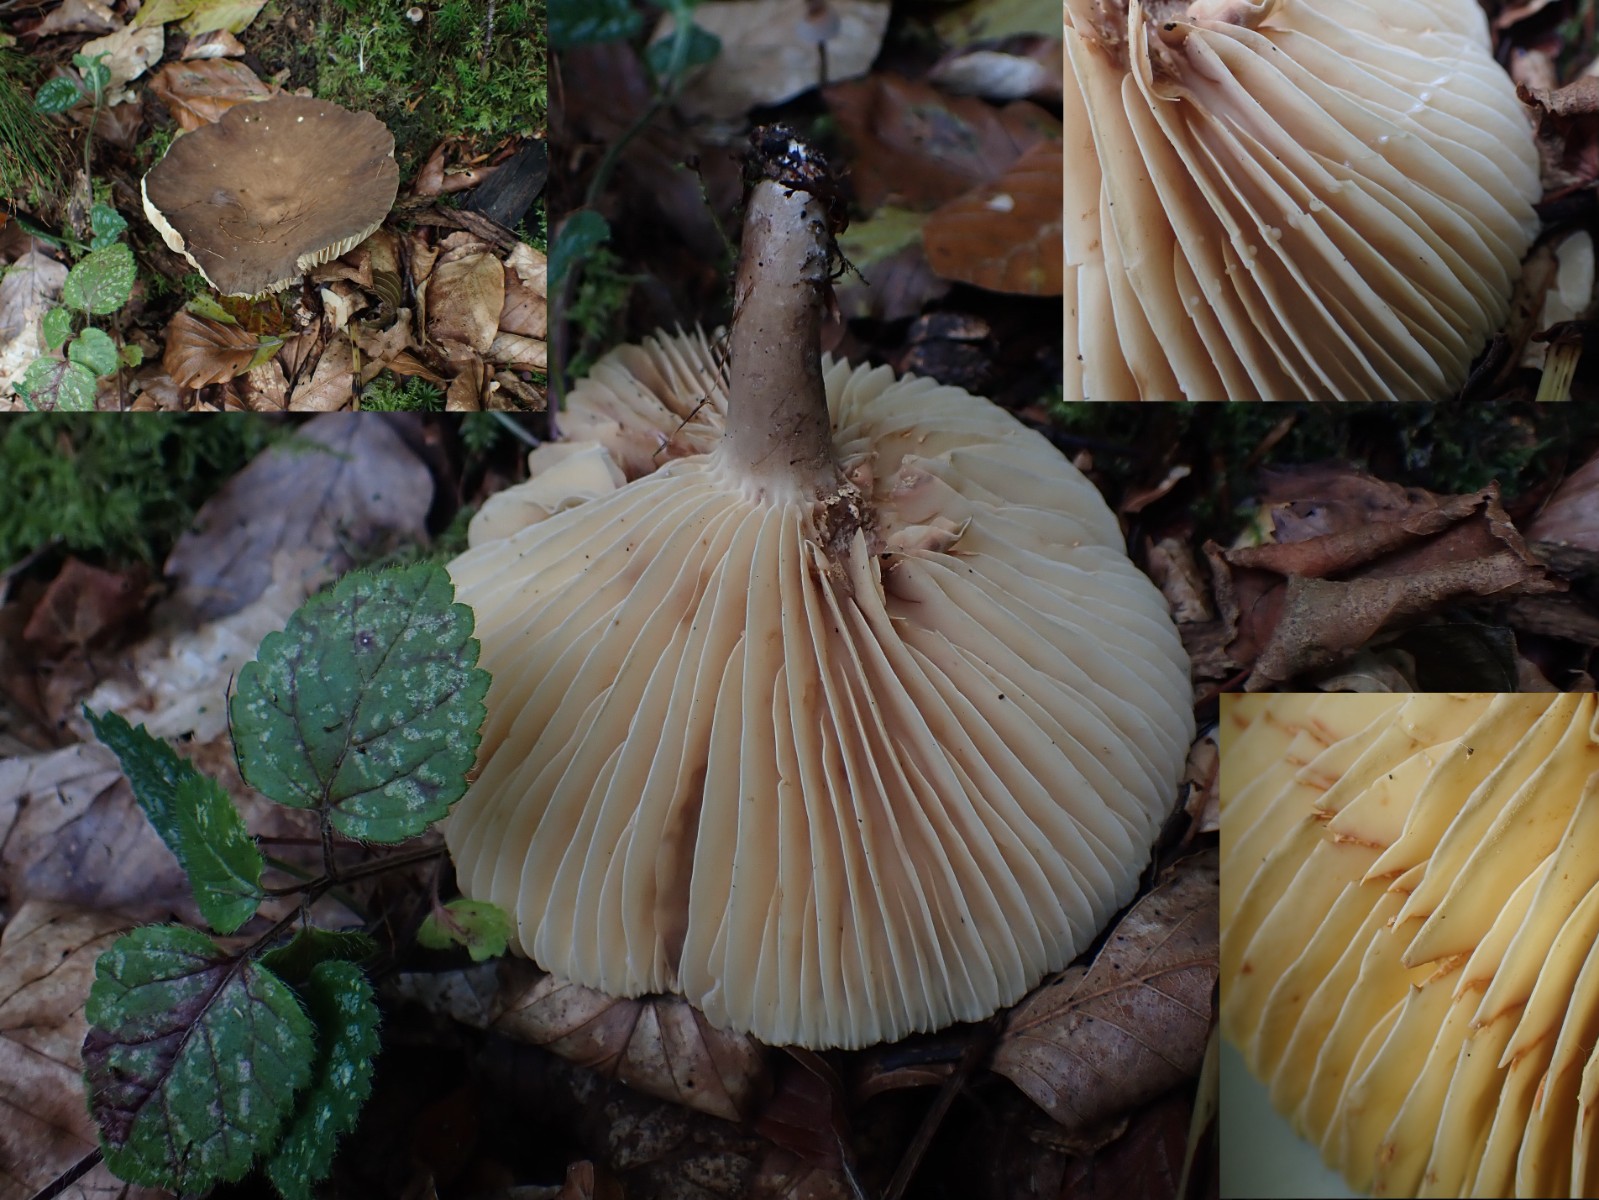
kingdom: Fungi
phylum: Basidiomycota
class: Agaricomycetes
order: Russulales
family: Russulaceae
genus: Lactarius
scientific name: Lactarius romagnesii
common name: fjernbladet mælkehat
